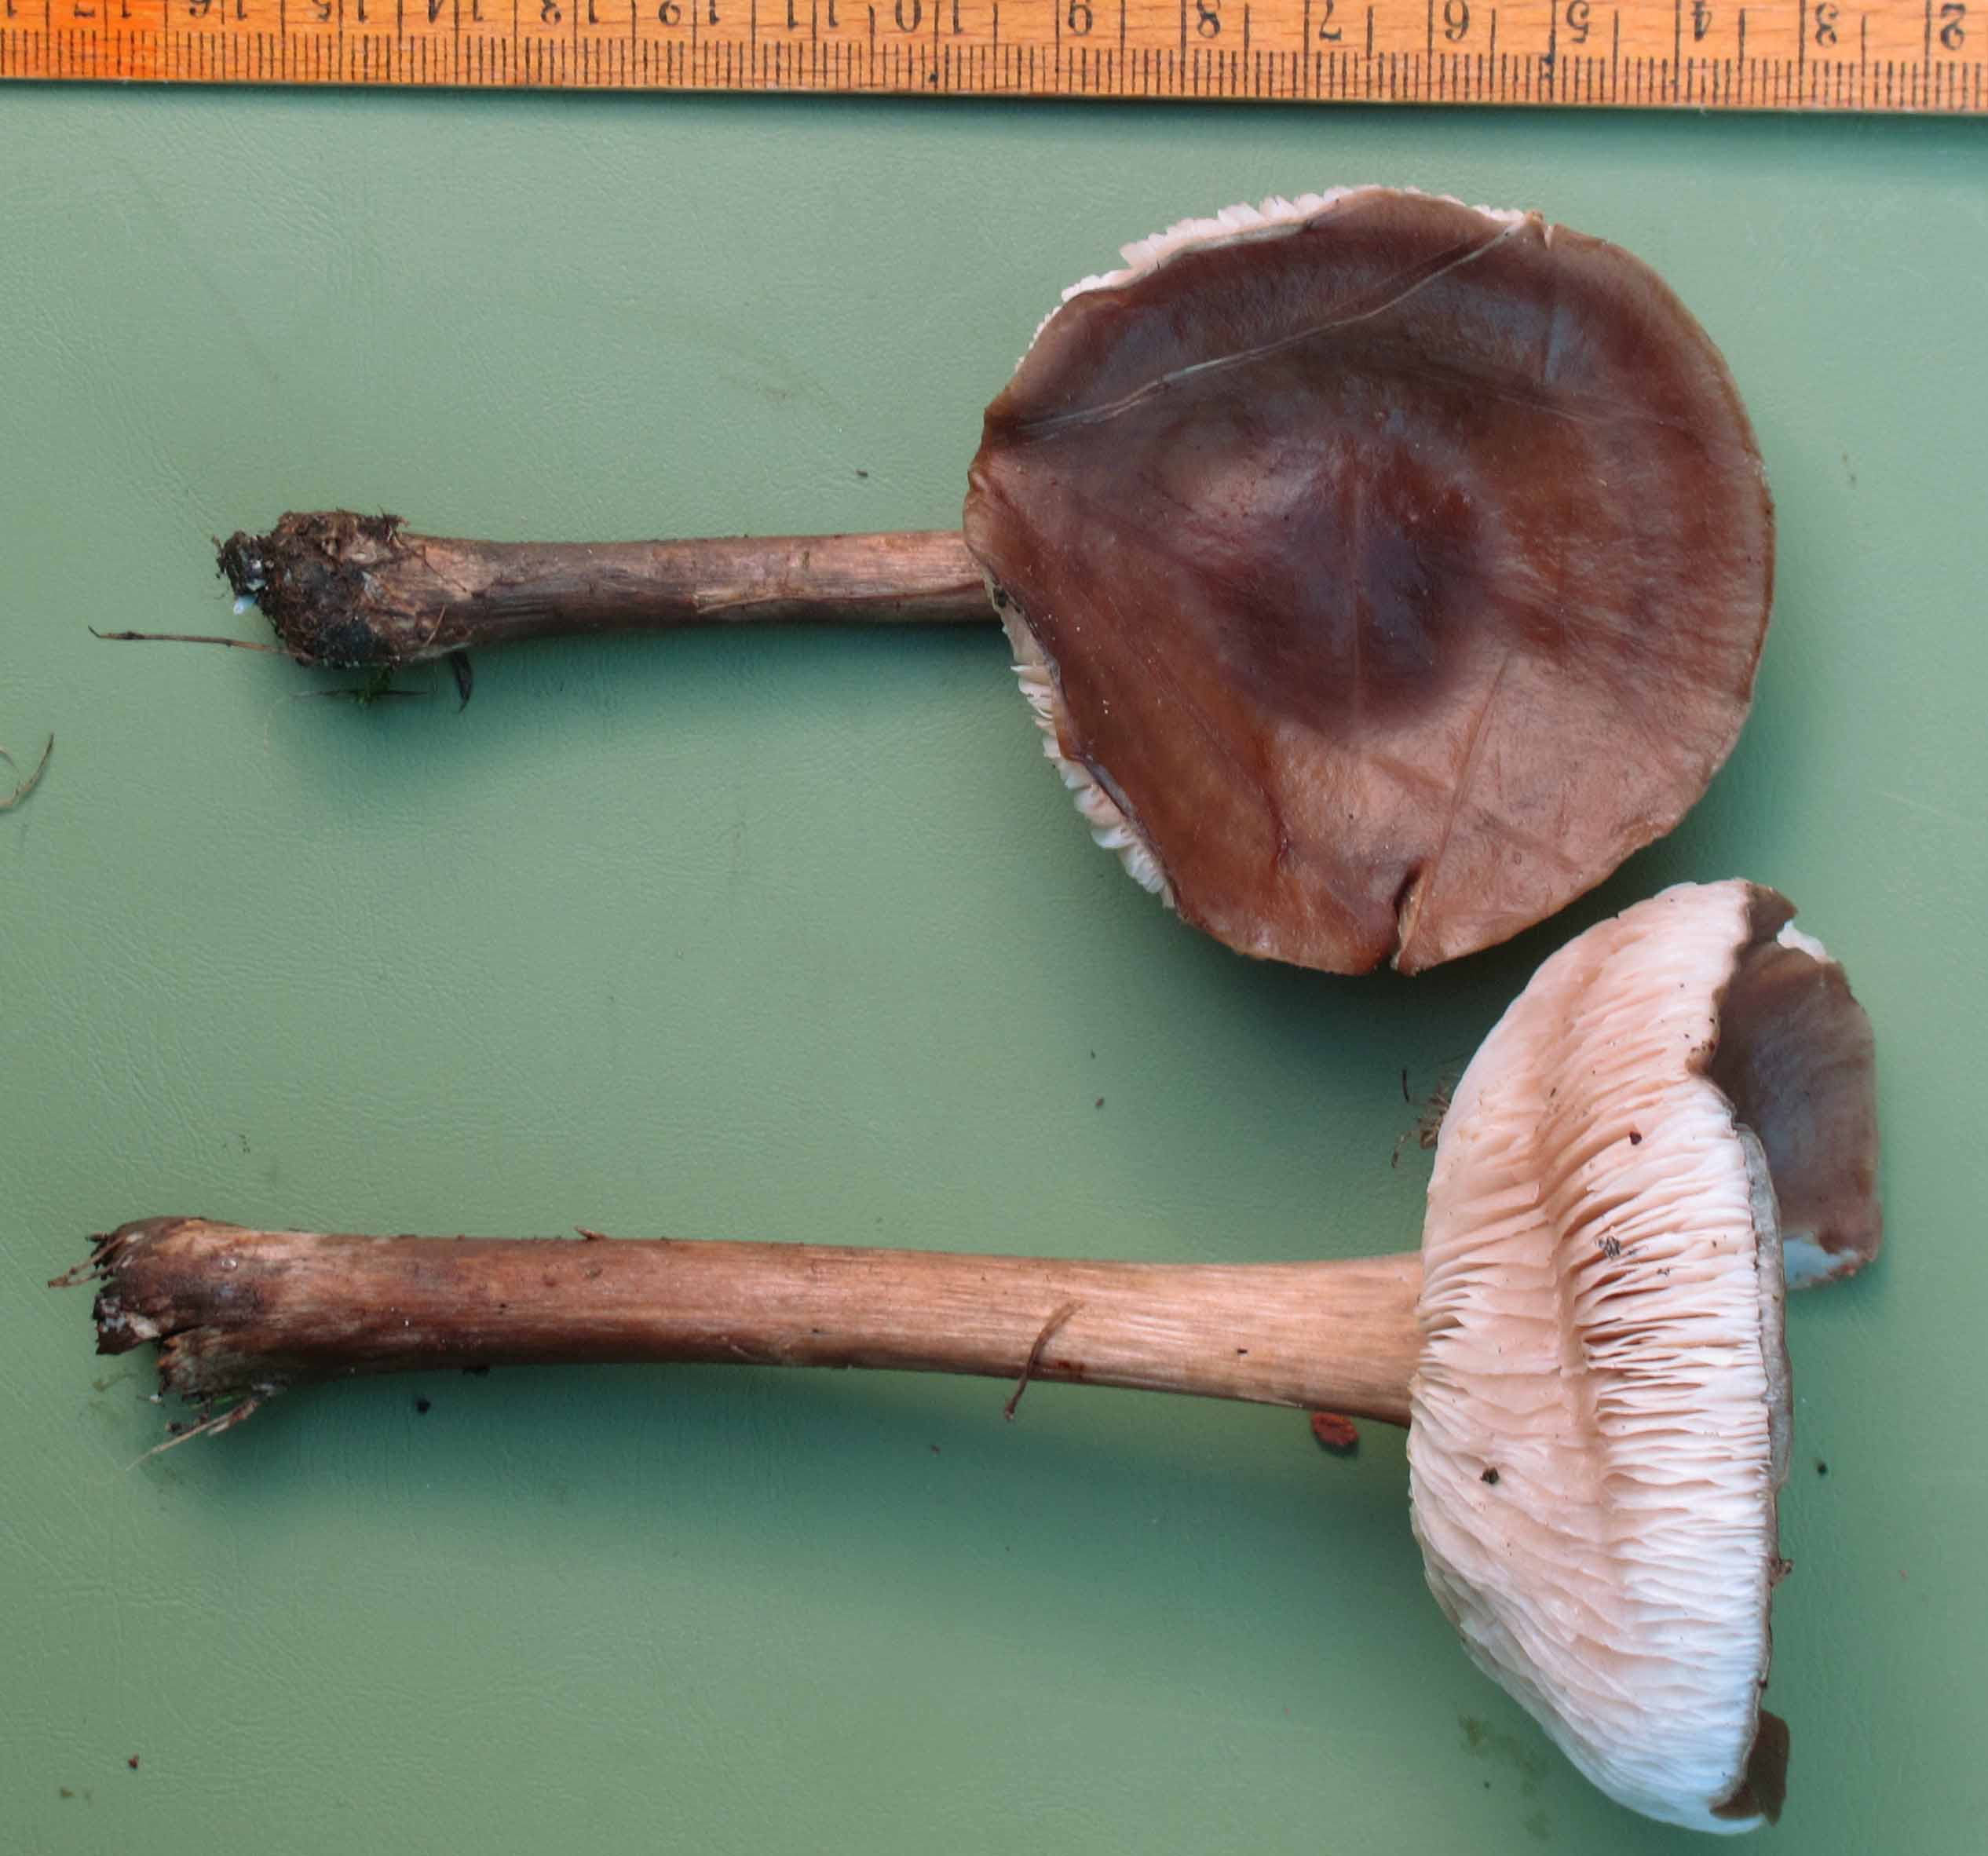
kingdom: Fungi
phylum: Basidiomycota
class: Agaricomycetes
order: Agaricales
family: Tricholomataceae
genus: Melanoleuca
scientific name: Melanoleuca polioleuca
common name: almindelig munkehat
